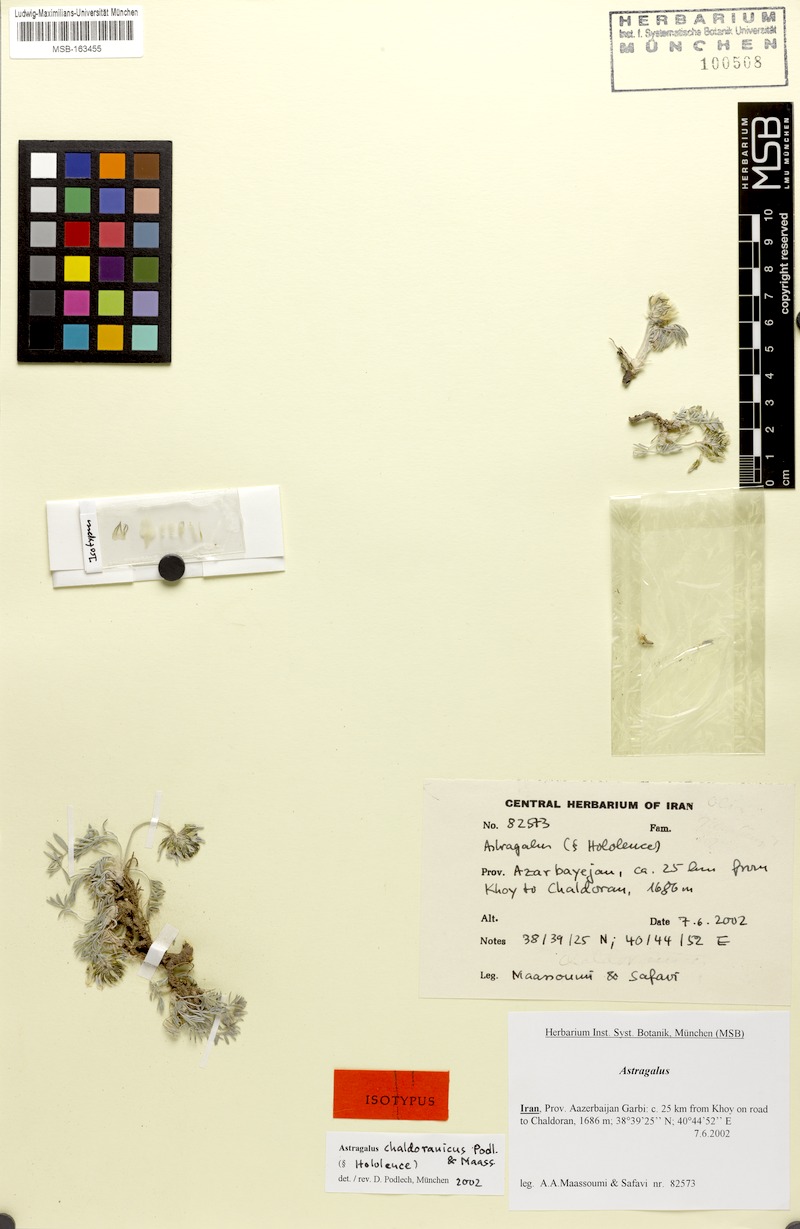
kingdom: Plantae
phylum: Tracheophyta
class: Magnoliopsida
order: Fabales
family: Fabaceae
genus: Astragalus
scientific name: Astragalus neochaldoranicus
